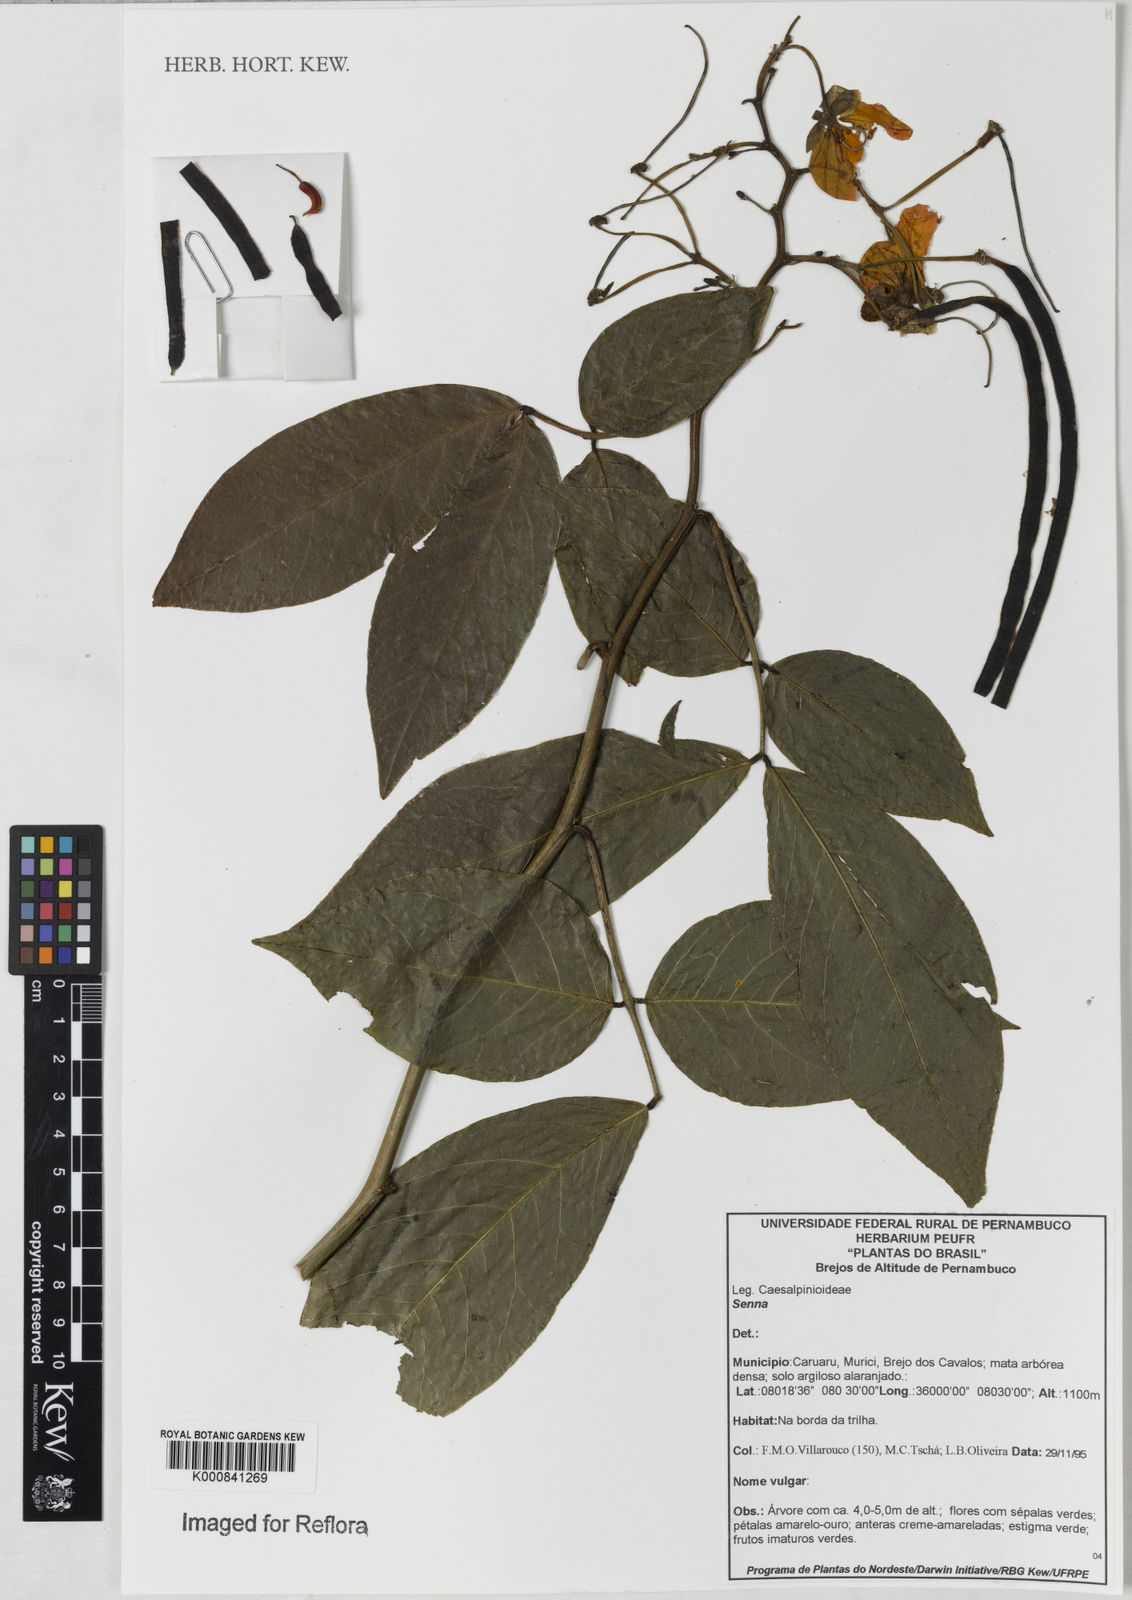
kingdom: Plantae
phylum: Tracheophyta
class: Magnoliopsida
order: Fabales
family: Fabaceae
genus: Senna
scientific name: Senna georgica
